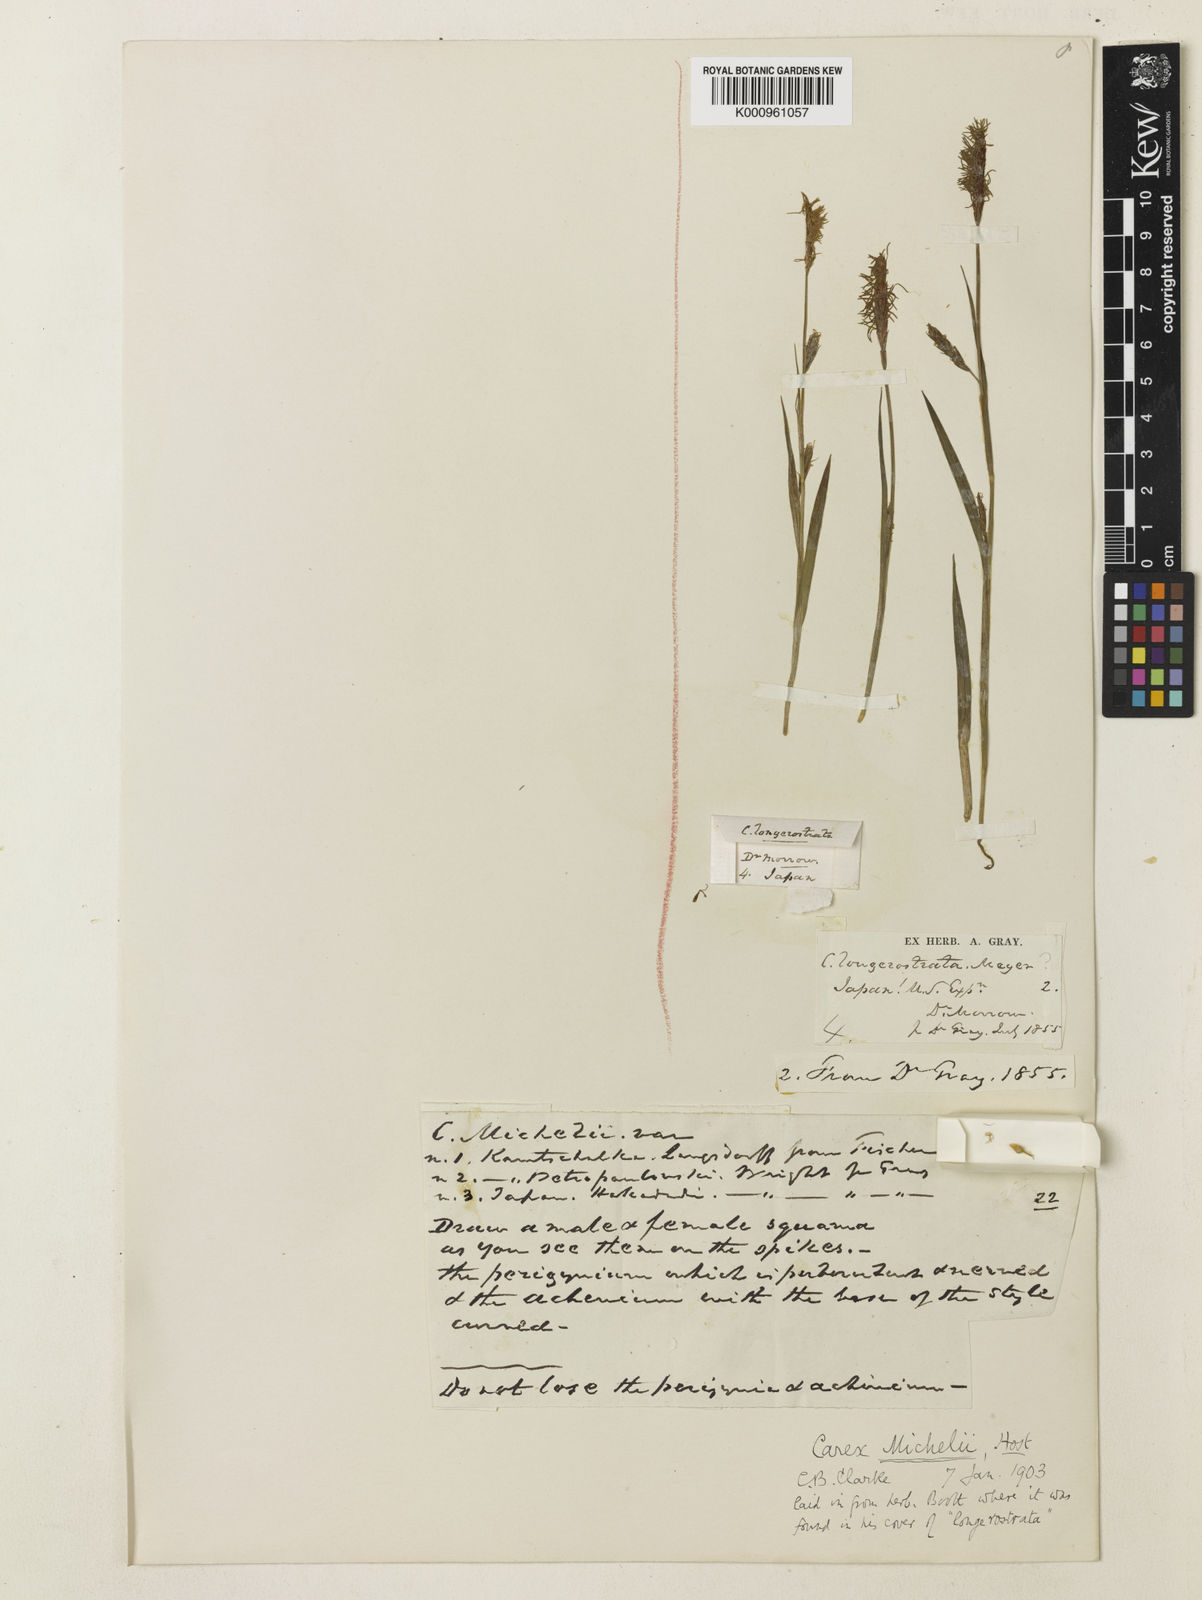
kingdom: Plantae
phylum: Tracheophyta
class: Liliopsida
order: Poales
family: Cyperaceae
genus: Carex
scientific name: Carex michelii
